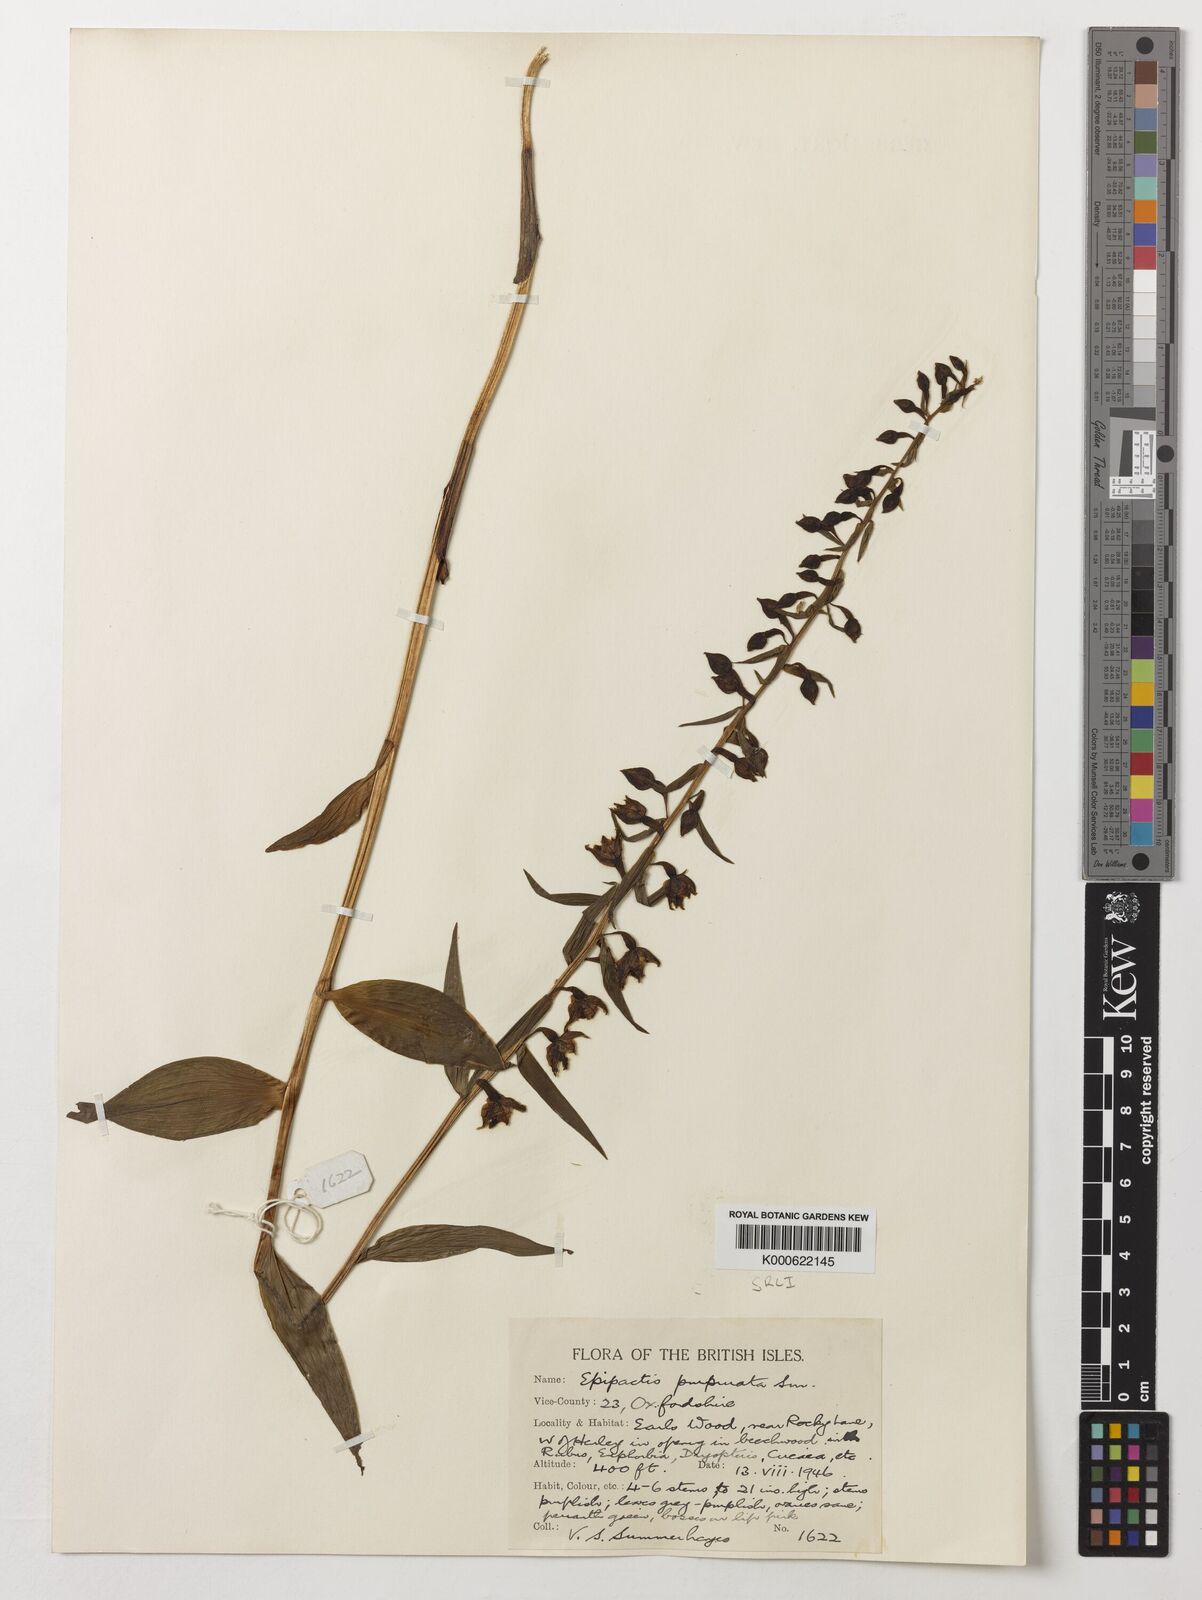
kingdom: Plantae
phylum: Tracheophyta
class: Liliopsida
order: Asparagales
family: Orchidaceae
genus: Epipactis
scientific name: Epipactis purpurata
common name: Violet helleborine
